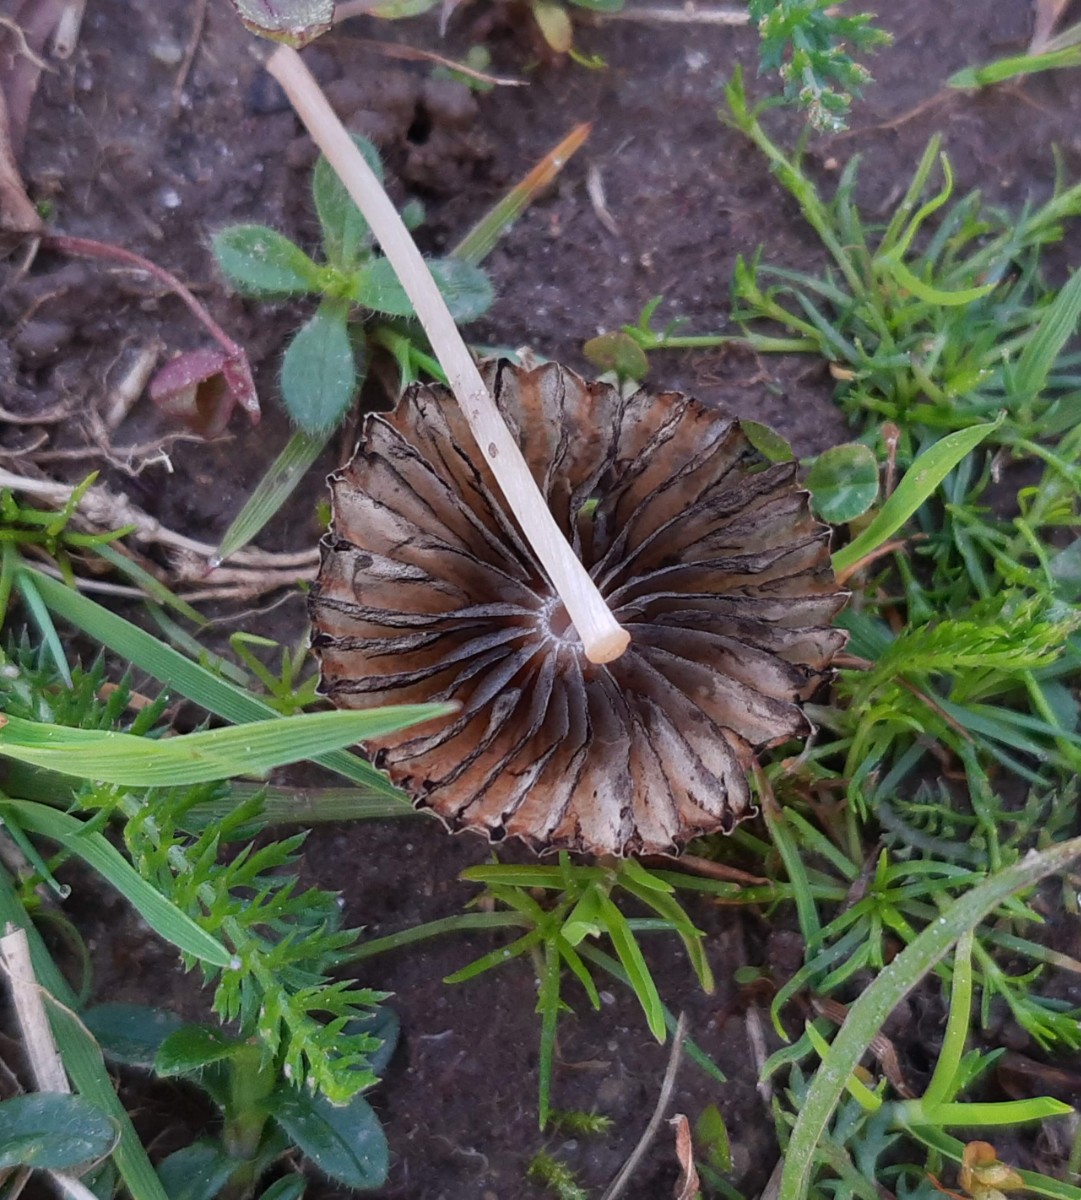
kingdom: Fungi
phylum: Basidiomycota
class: Agaricomycetes
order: Agaricales
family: Psathyrellaceae
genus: Parasola
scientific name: Parasola schroeteri
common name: bredsporet hjulhat
